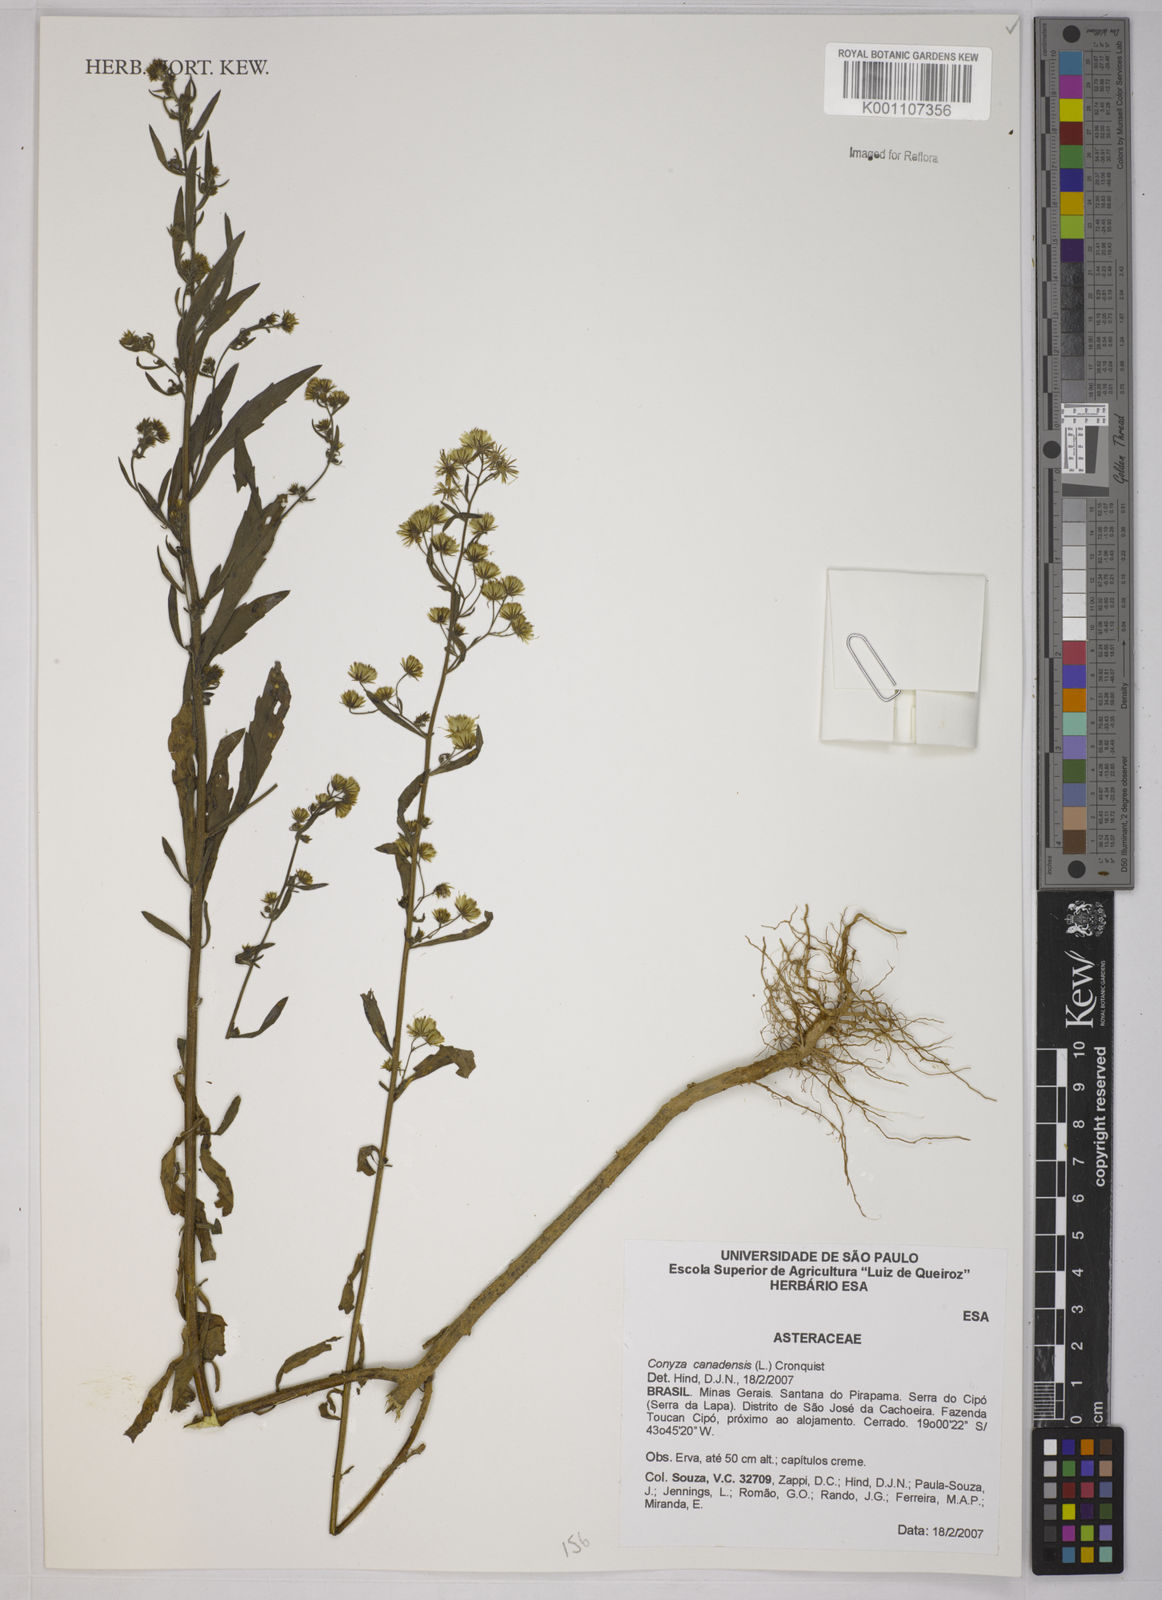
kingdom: Plantae
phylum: Tracheophyta
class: Magnoliopsida
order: Asterales
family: Asteraceae
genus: Erigeron
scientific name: Erigeron canadensis
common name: Canadian fleabane
